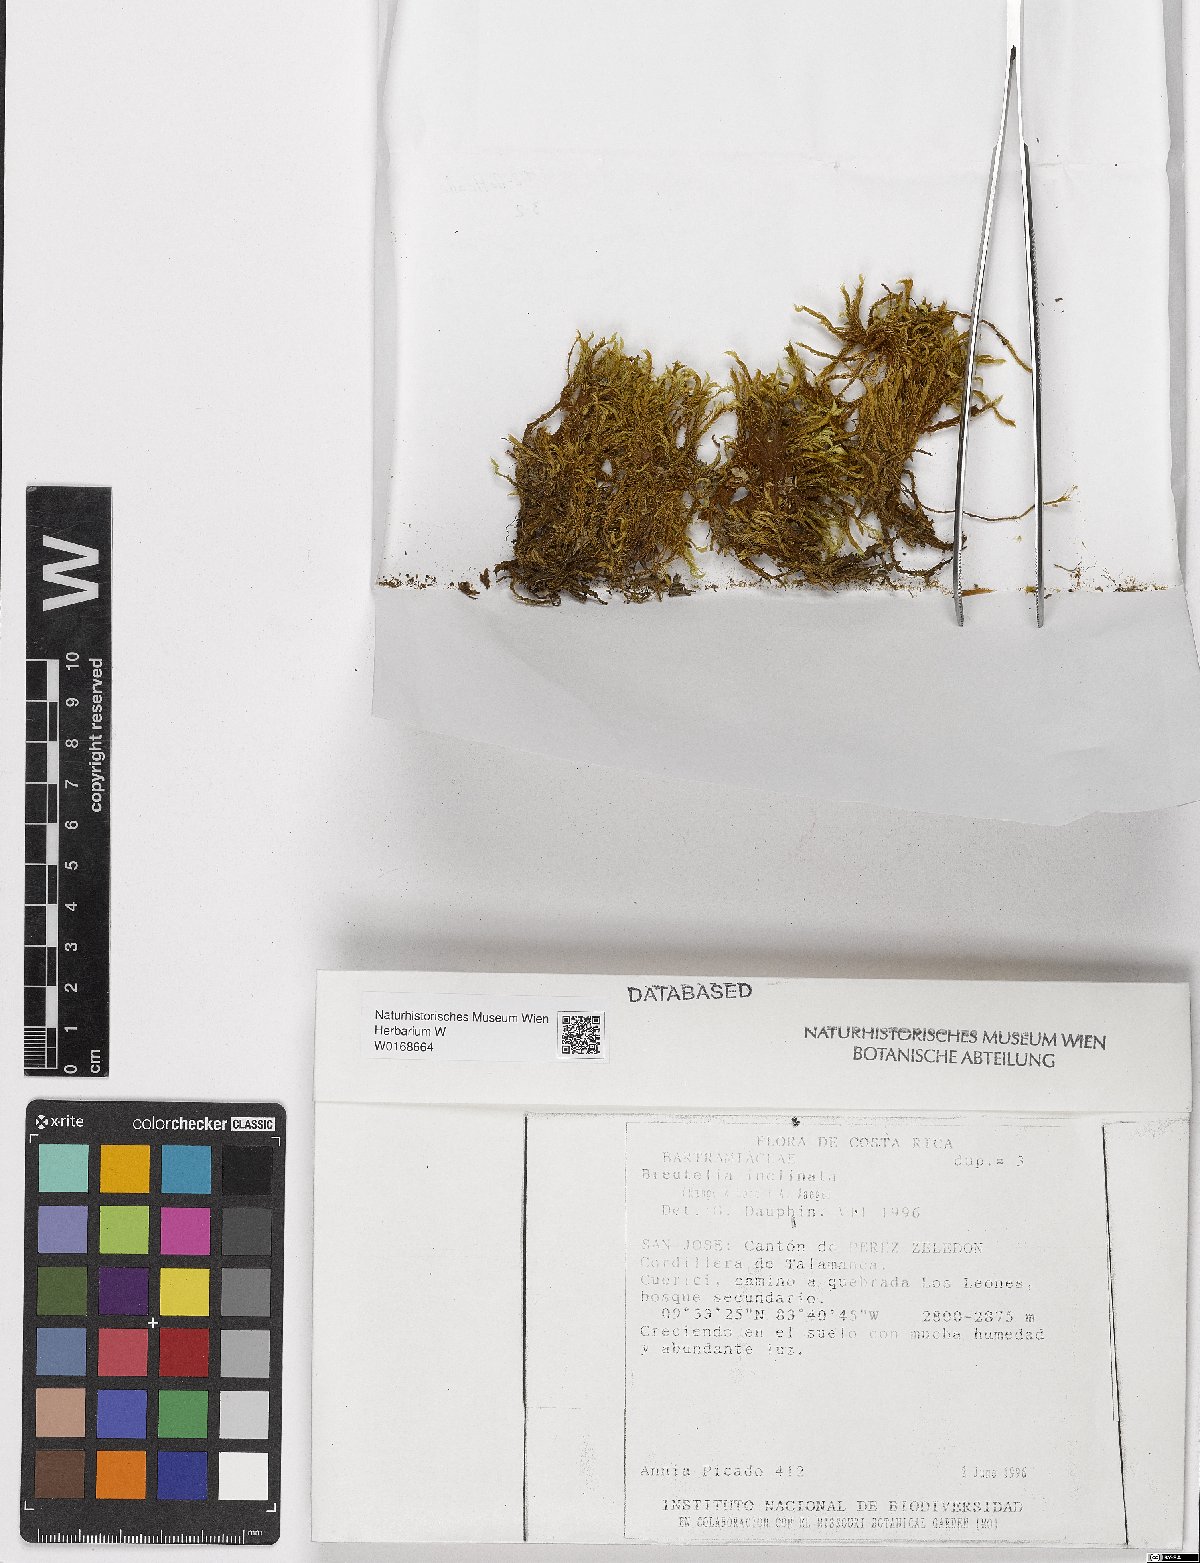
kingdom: Plantae
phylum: Bryophyta
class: Bryopsida
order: Bartramiales
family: Bartramiaceae
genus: Breutelia
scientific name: Breutelia inclinata
